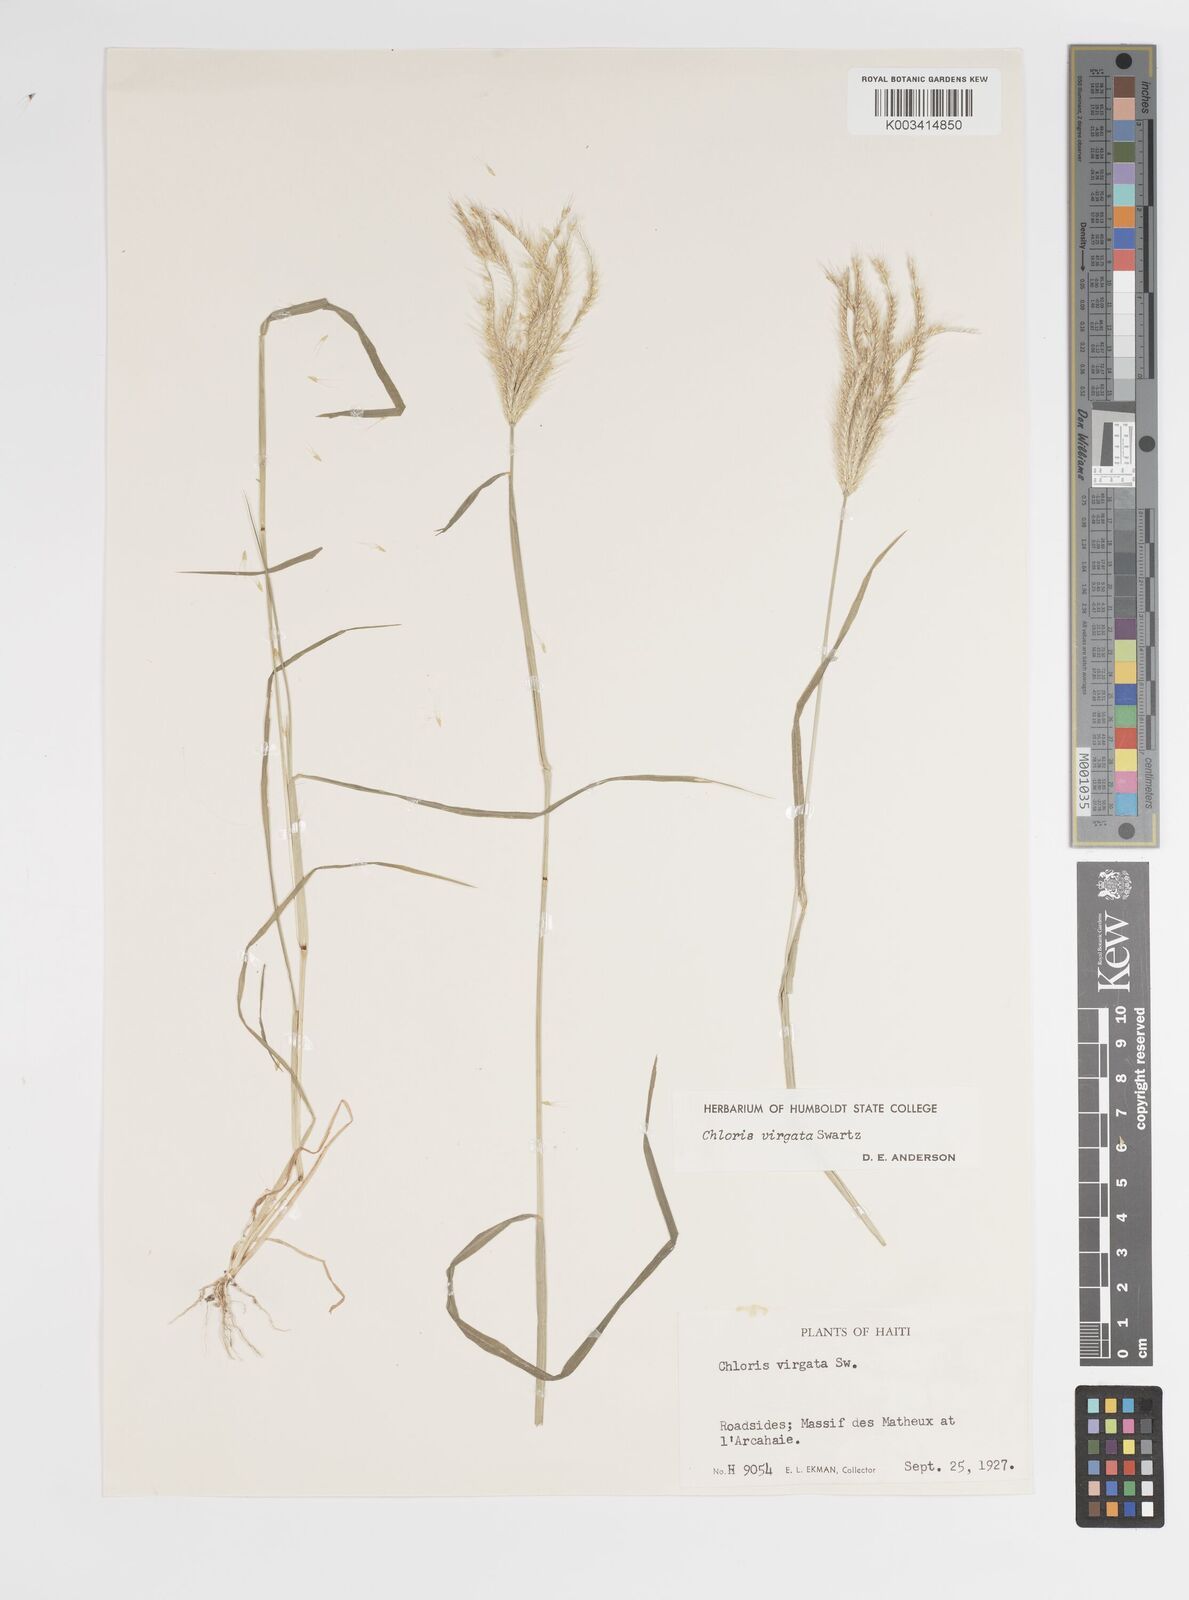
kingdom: Plantae
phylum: Tracheophyta
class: Liliopsida
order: Poales
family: Poaceae
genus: Chloris
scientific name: Chloris virgata
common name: Feathery rhodes-grass
